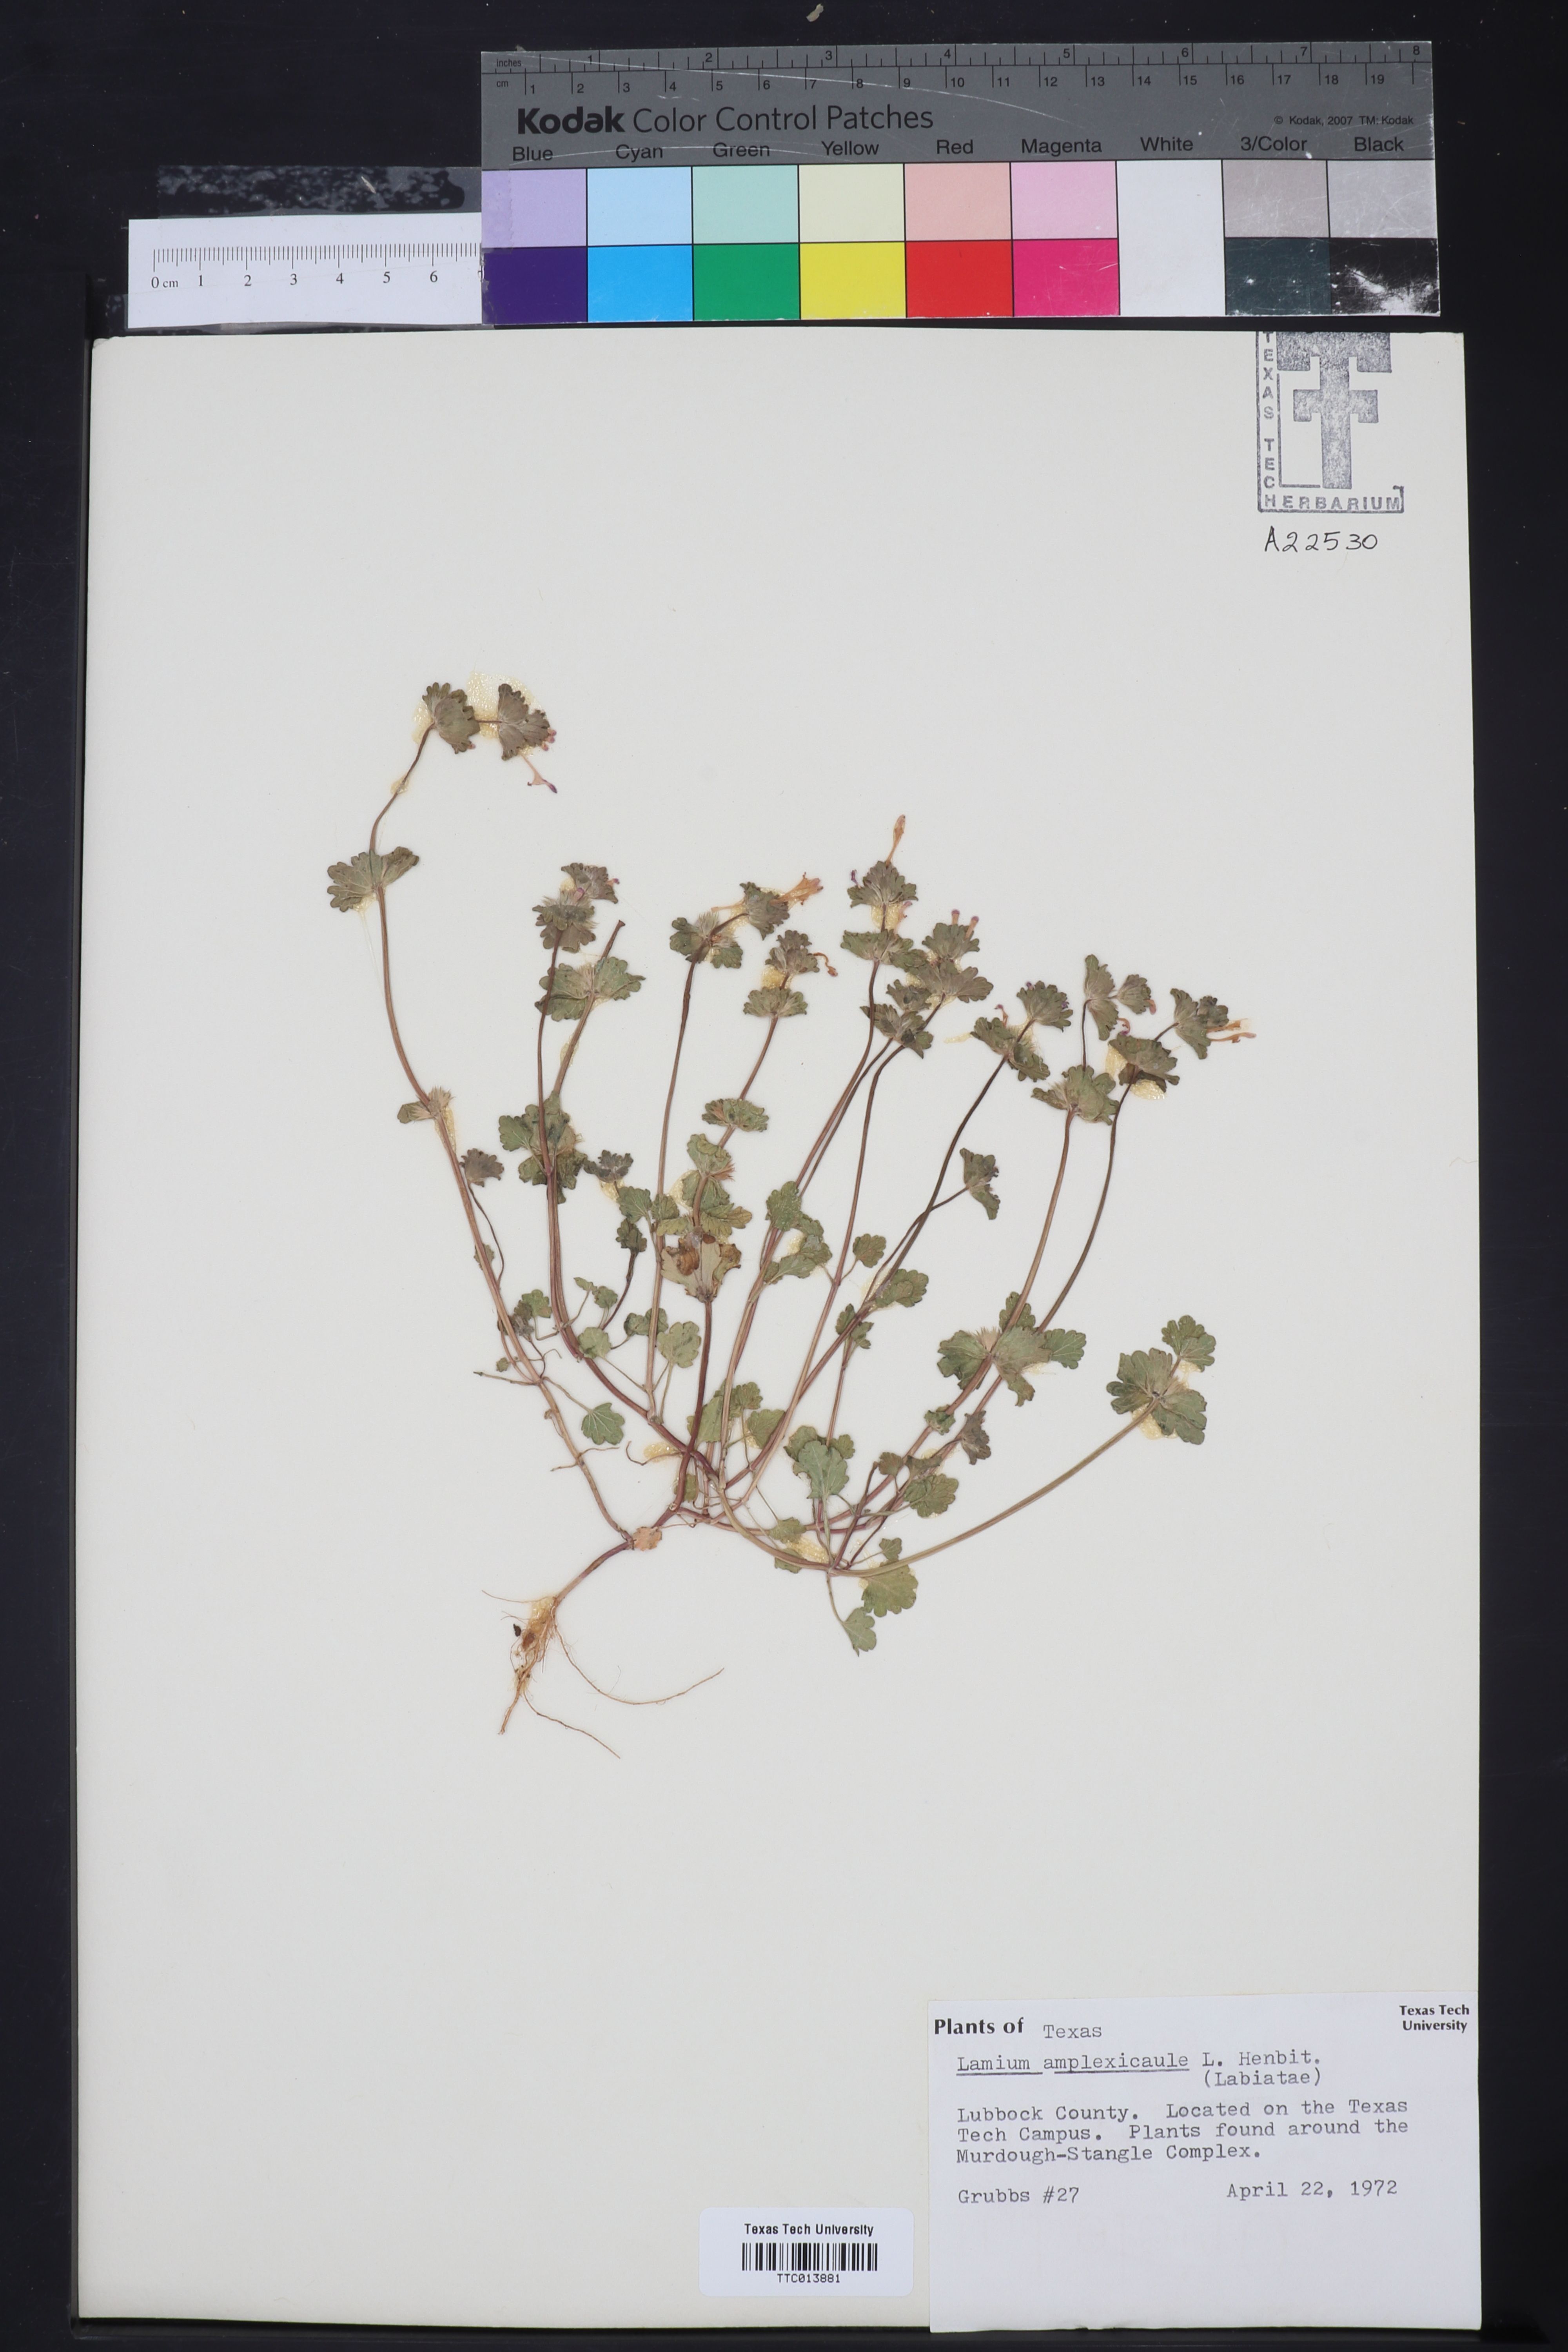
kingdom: Plantae
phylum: Tracheophyta
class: Magnoliopsida
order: Lamiales
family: Lamiaceae
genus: Lamium
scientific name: Lamium amplexicaule
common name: Henbit dead-nettle
